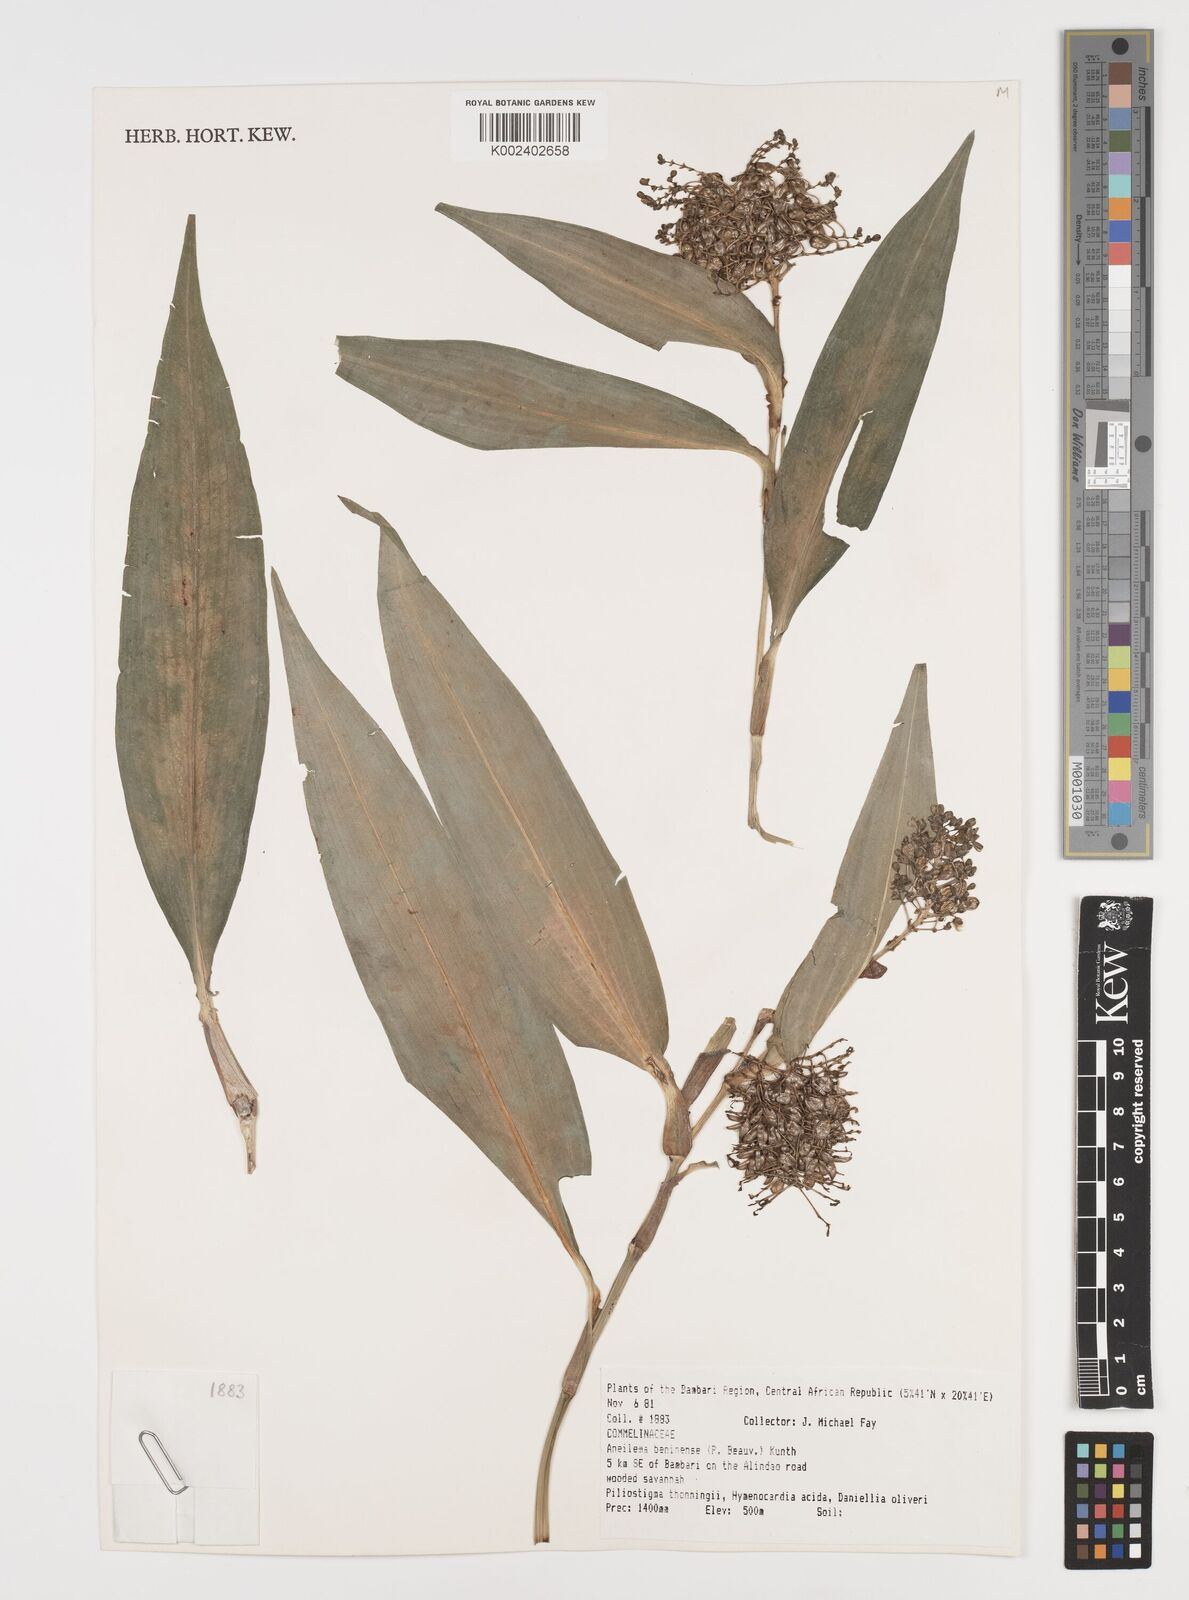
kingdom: Plantae
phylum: Tracheophyta
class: Liliopsida
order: Commelinales
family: Commelinaceae
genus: Aneilema
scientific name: Aneilema beniniense
